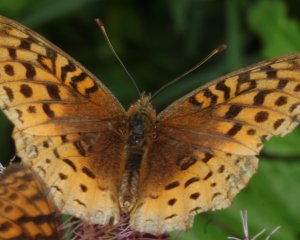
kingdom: Animalia
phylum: Arthropoda
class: Insecta
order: Lepidoptera
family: Nymphalidae
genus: Speyeria
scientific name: Speyeria cybele
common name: Great Spangled Fritillary
